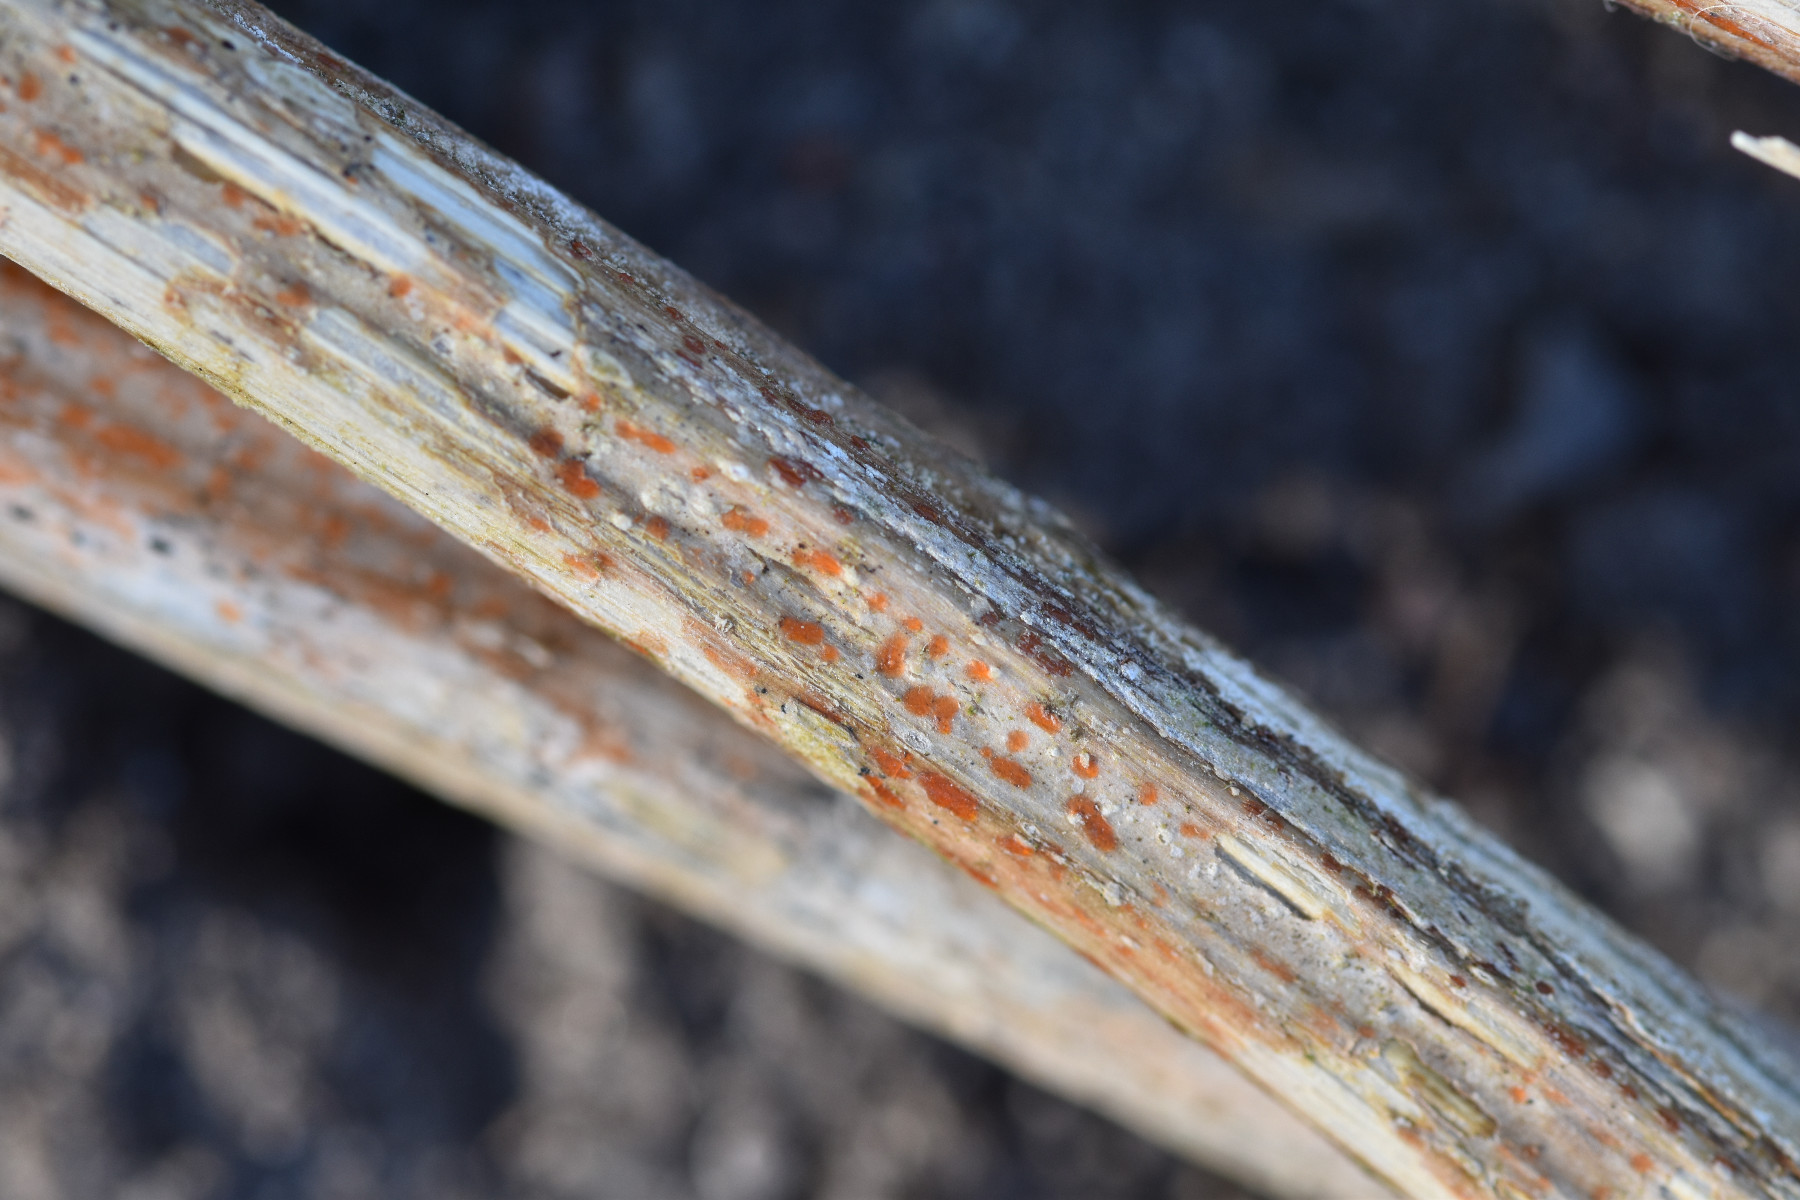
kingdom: Fungi
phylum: Ascomycota
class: Leotiomycetes
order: Helotiales
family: Calloriaceae
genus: Calloria
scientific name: Calloria urticae
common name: nælde-orangeskive
